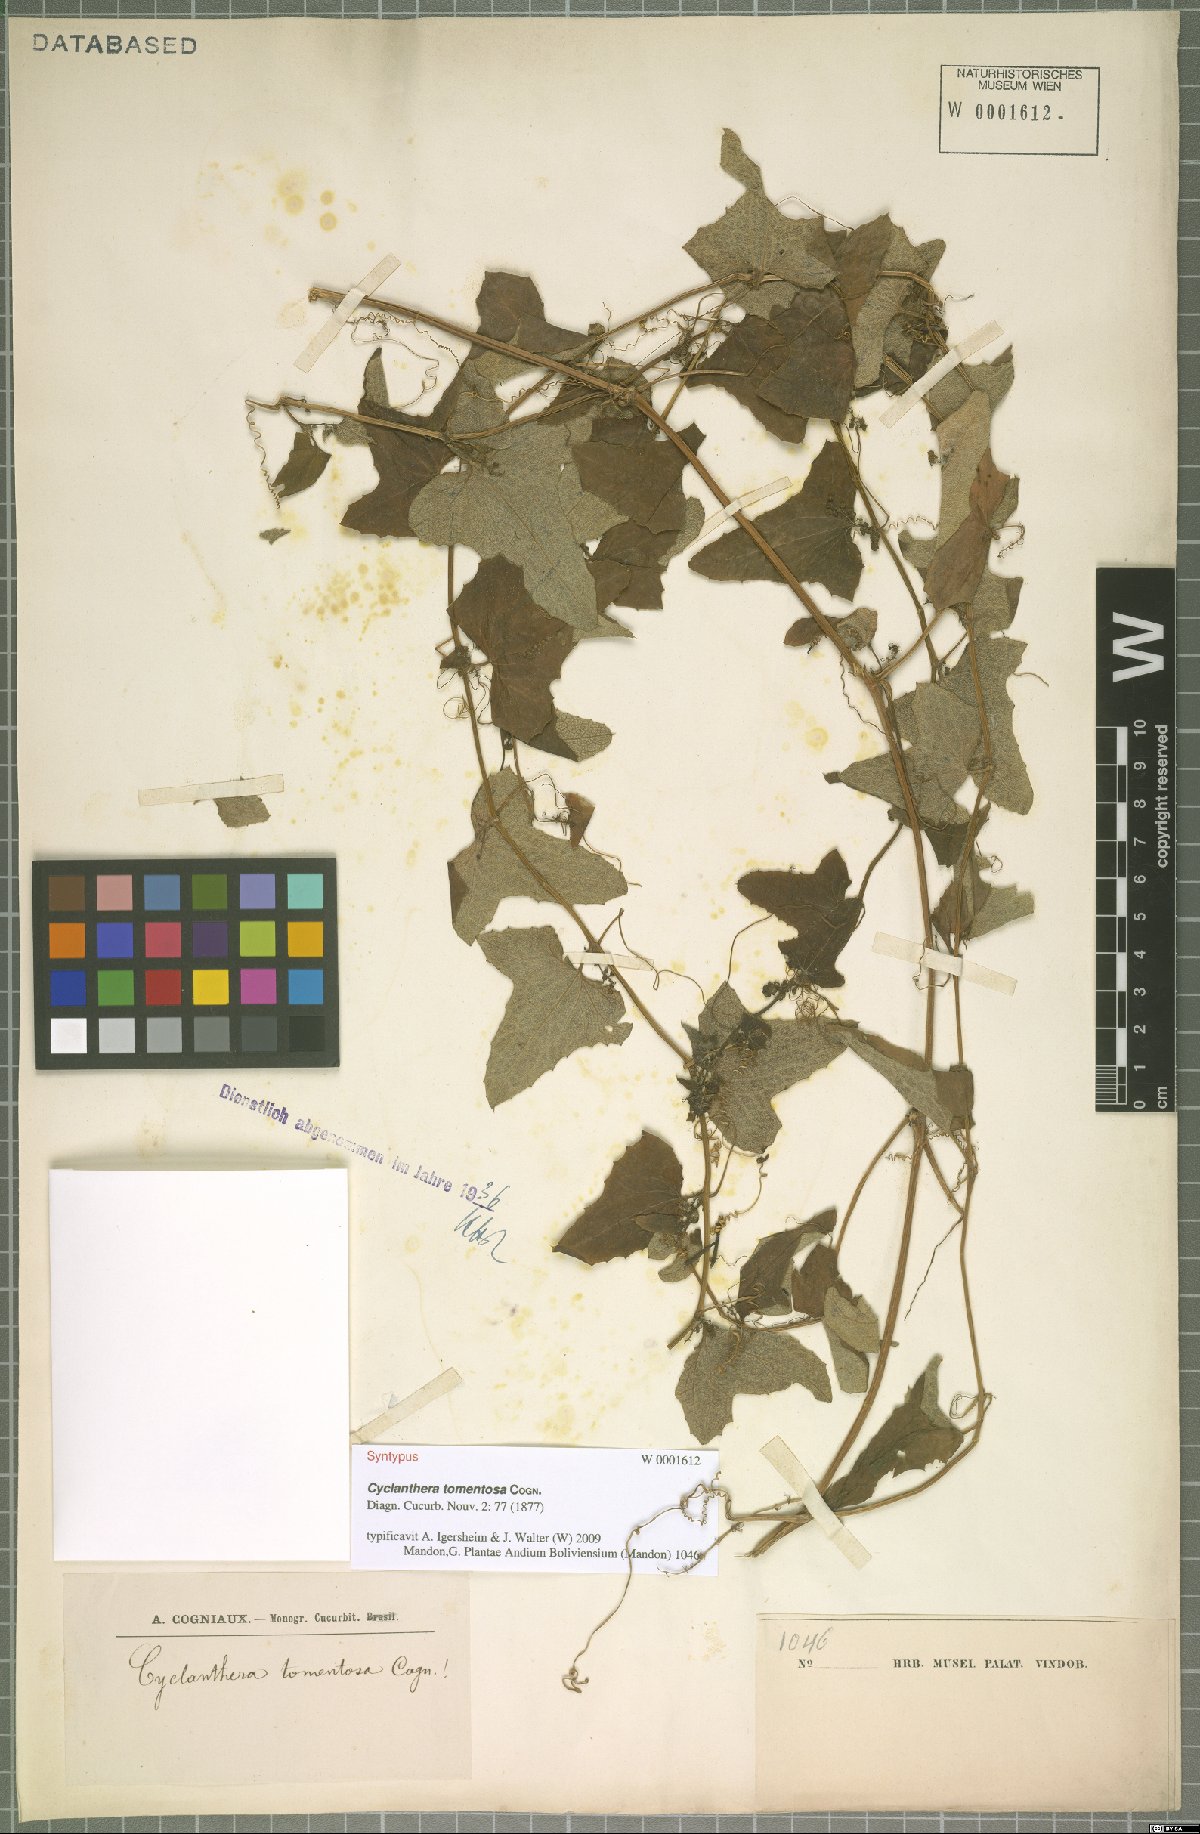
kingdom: Plantae
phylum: Tracheophyta
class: Magnoliopsida
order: Cucurbitales
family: Cucurbitaceae
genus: Cyclanthera
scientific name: Cyclanthera brachybotrys
